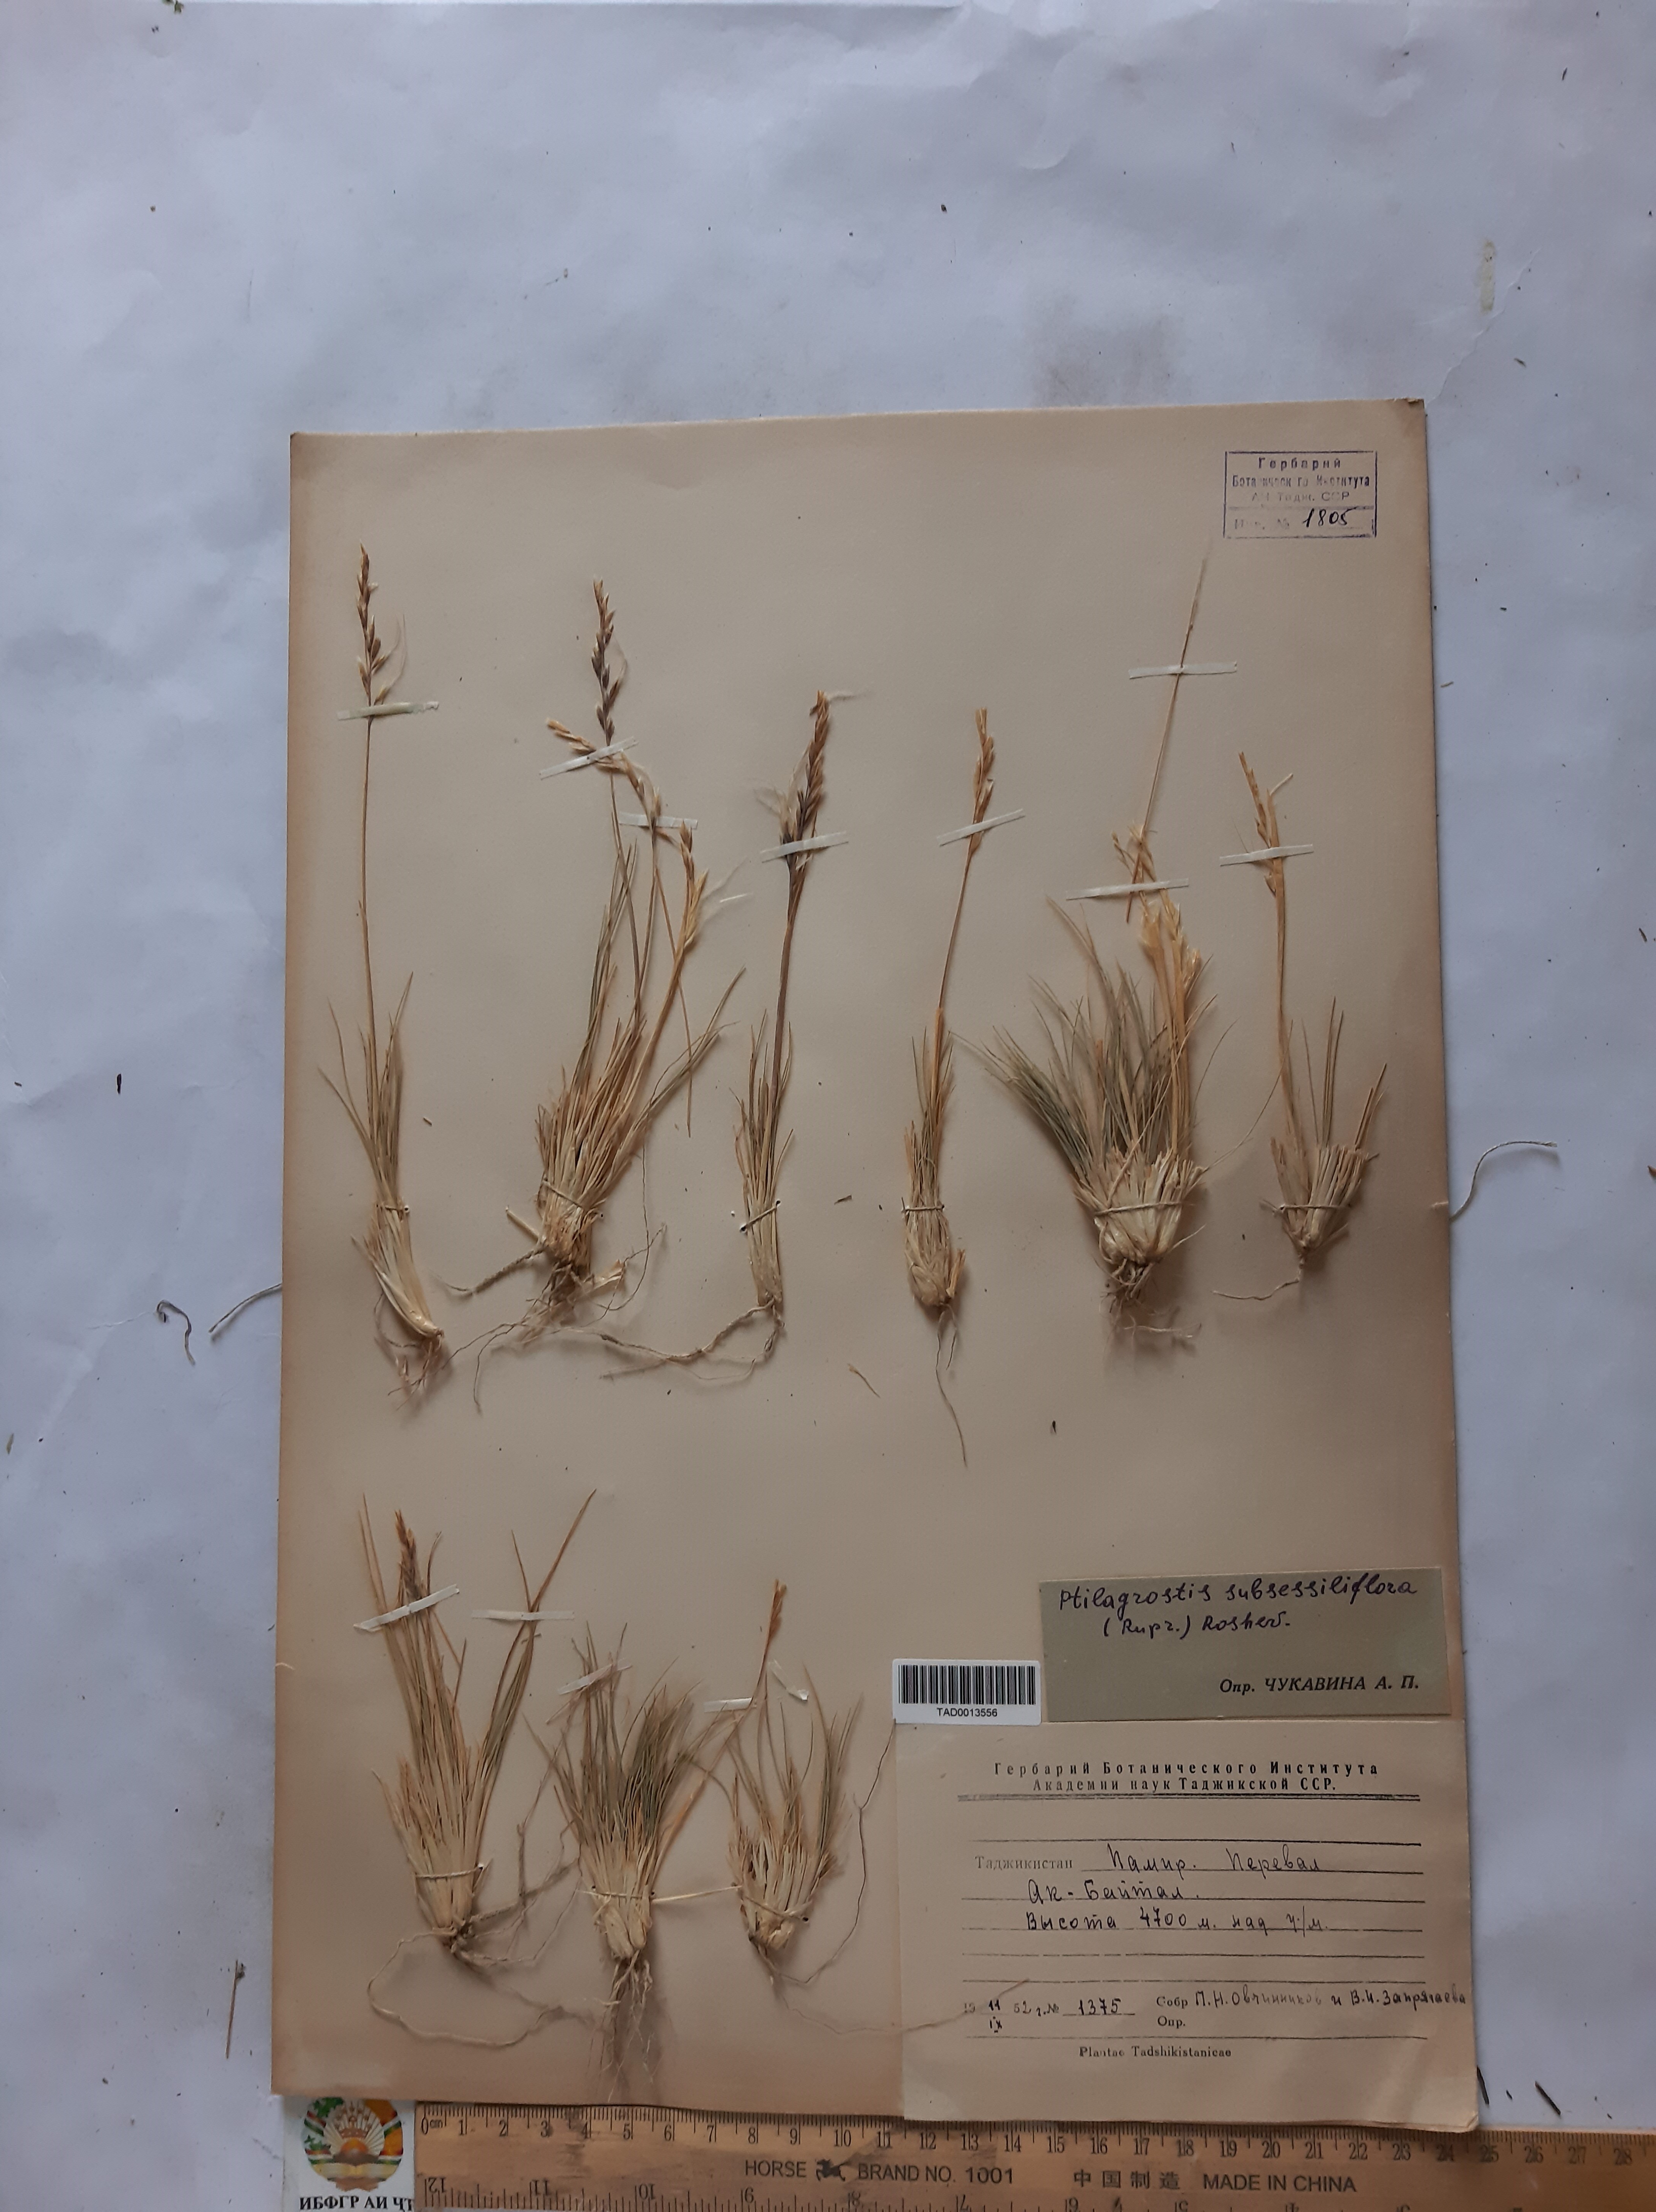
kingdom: Plantae
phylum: Tracheophyta
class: Liliopsida
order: Poales
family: Poaceae
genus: Stipa
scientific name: Stipa subsessiliflora
